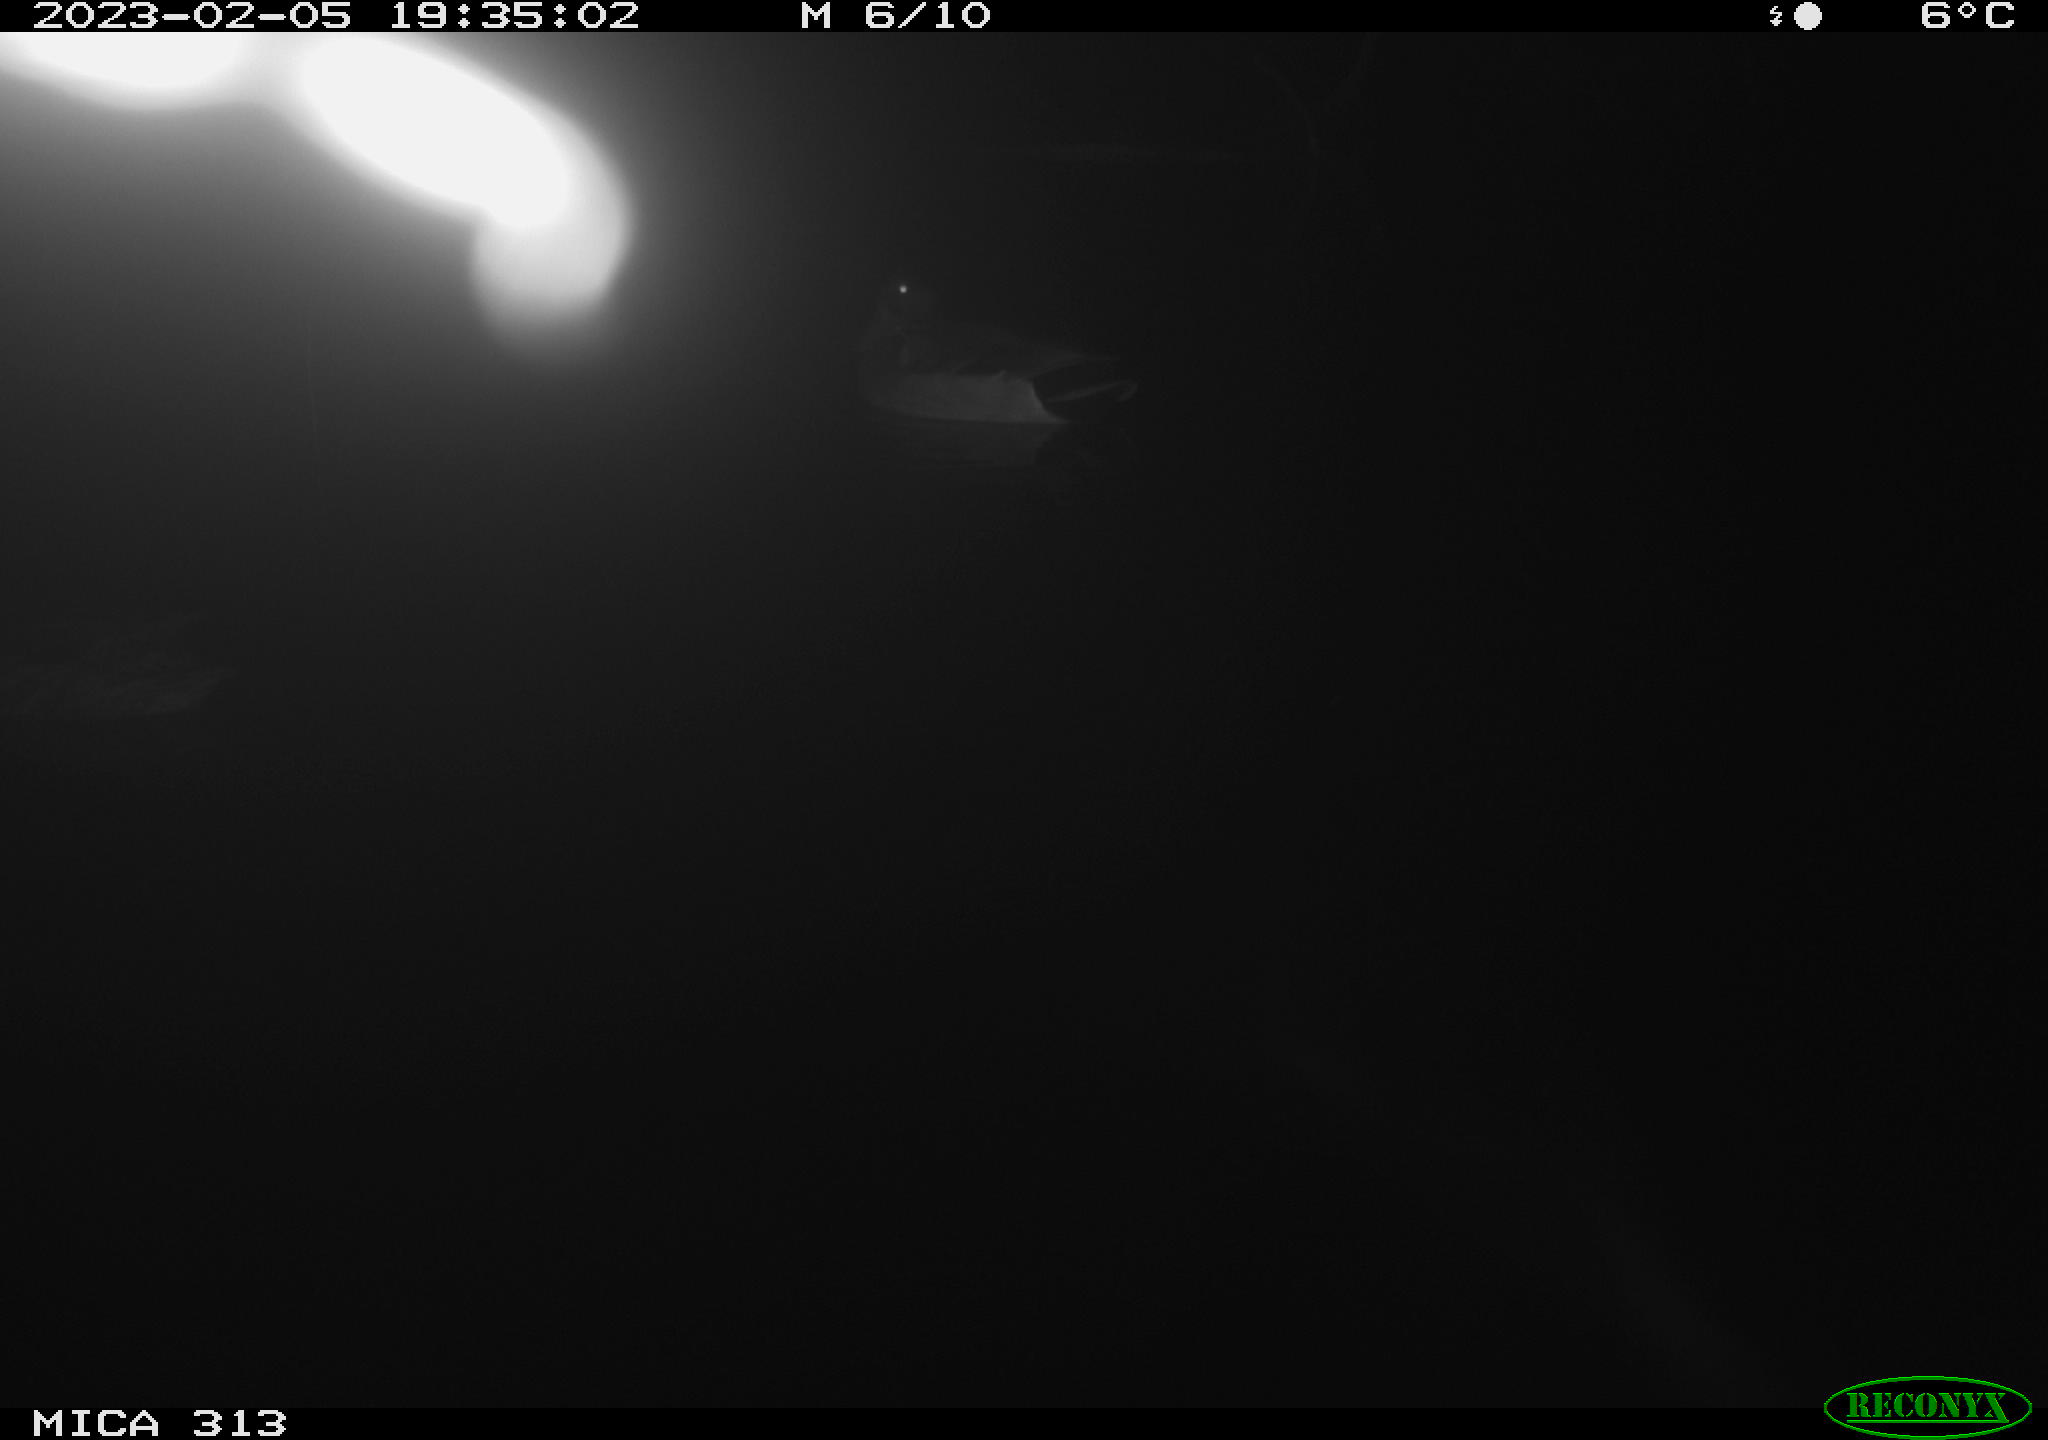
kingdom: Animalia
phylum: Chordata
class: Aves
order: Anseriformes
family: Anatidae
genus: Anas
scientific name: Anas
